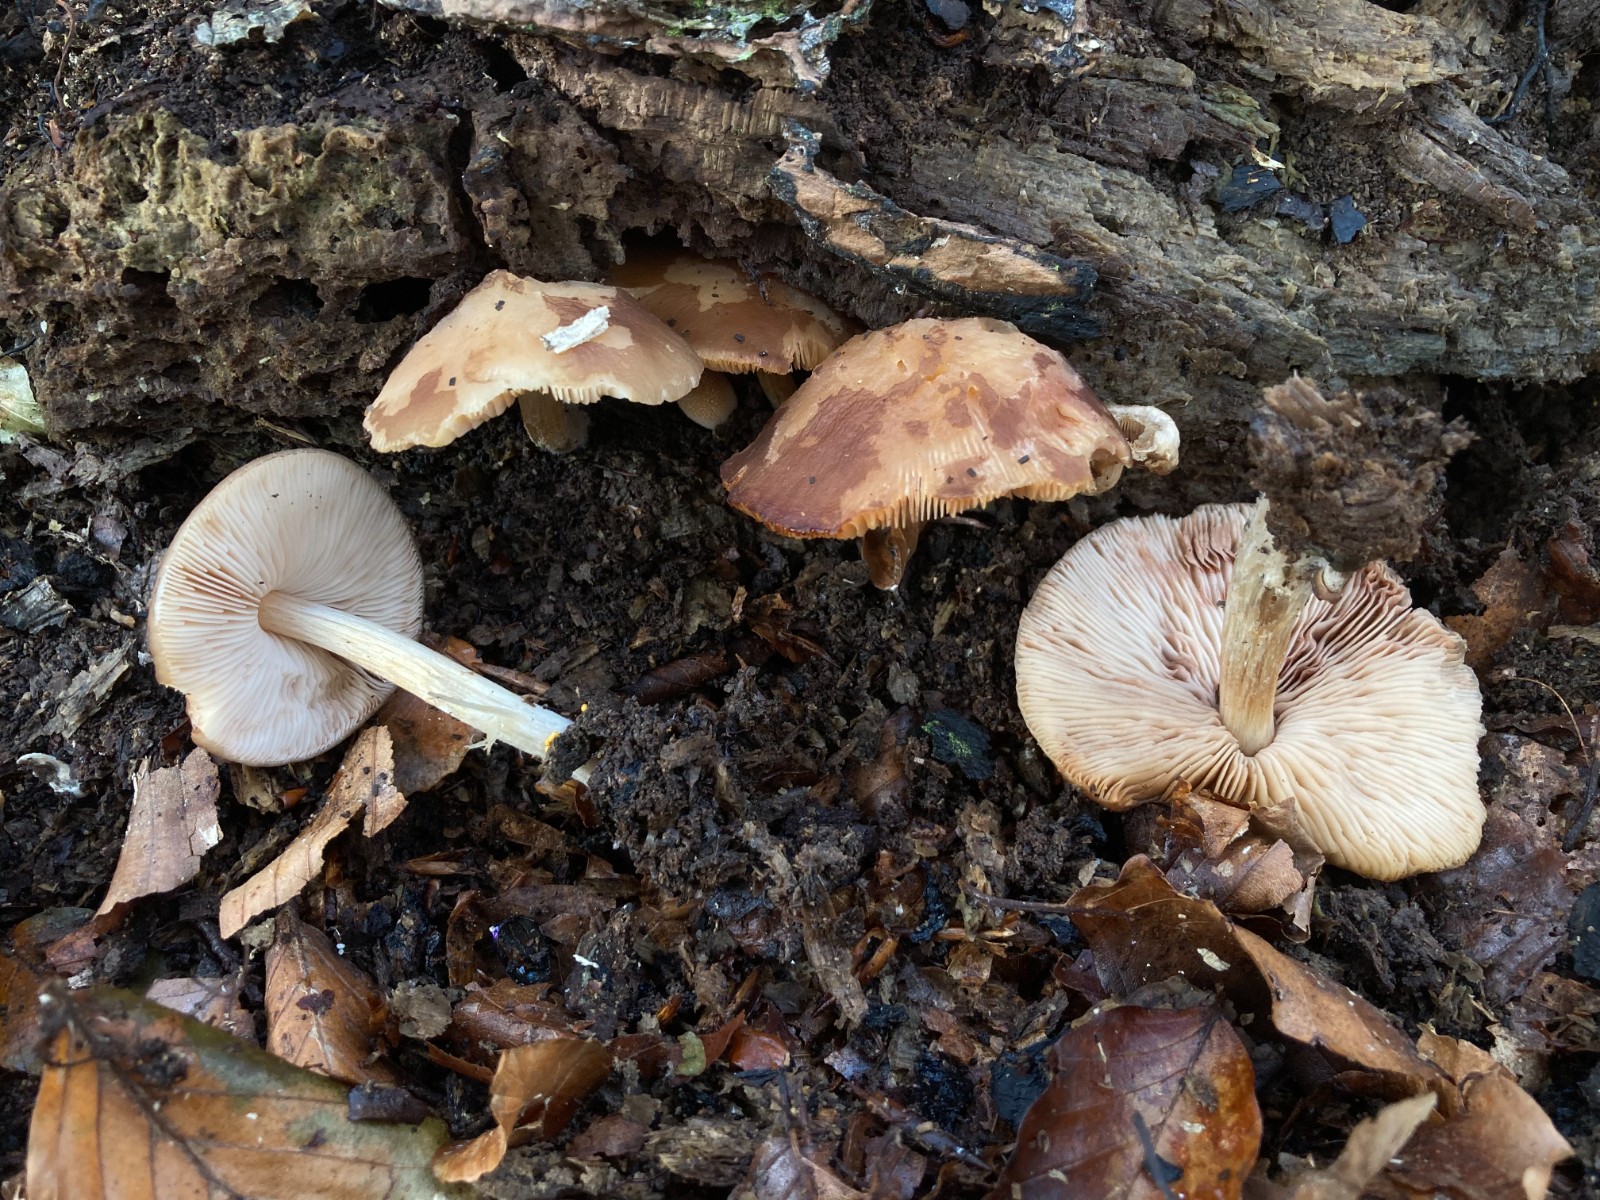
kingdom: Fungi
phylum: Basidiomycota
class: Agaricomycetes
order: Agaricales
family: Pluteaceae
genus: Pluteus
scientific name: Pluteus phlebophorus
